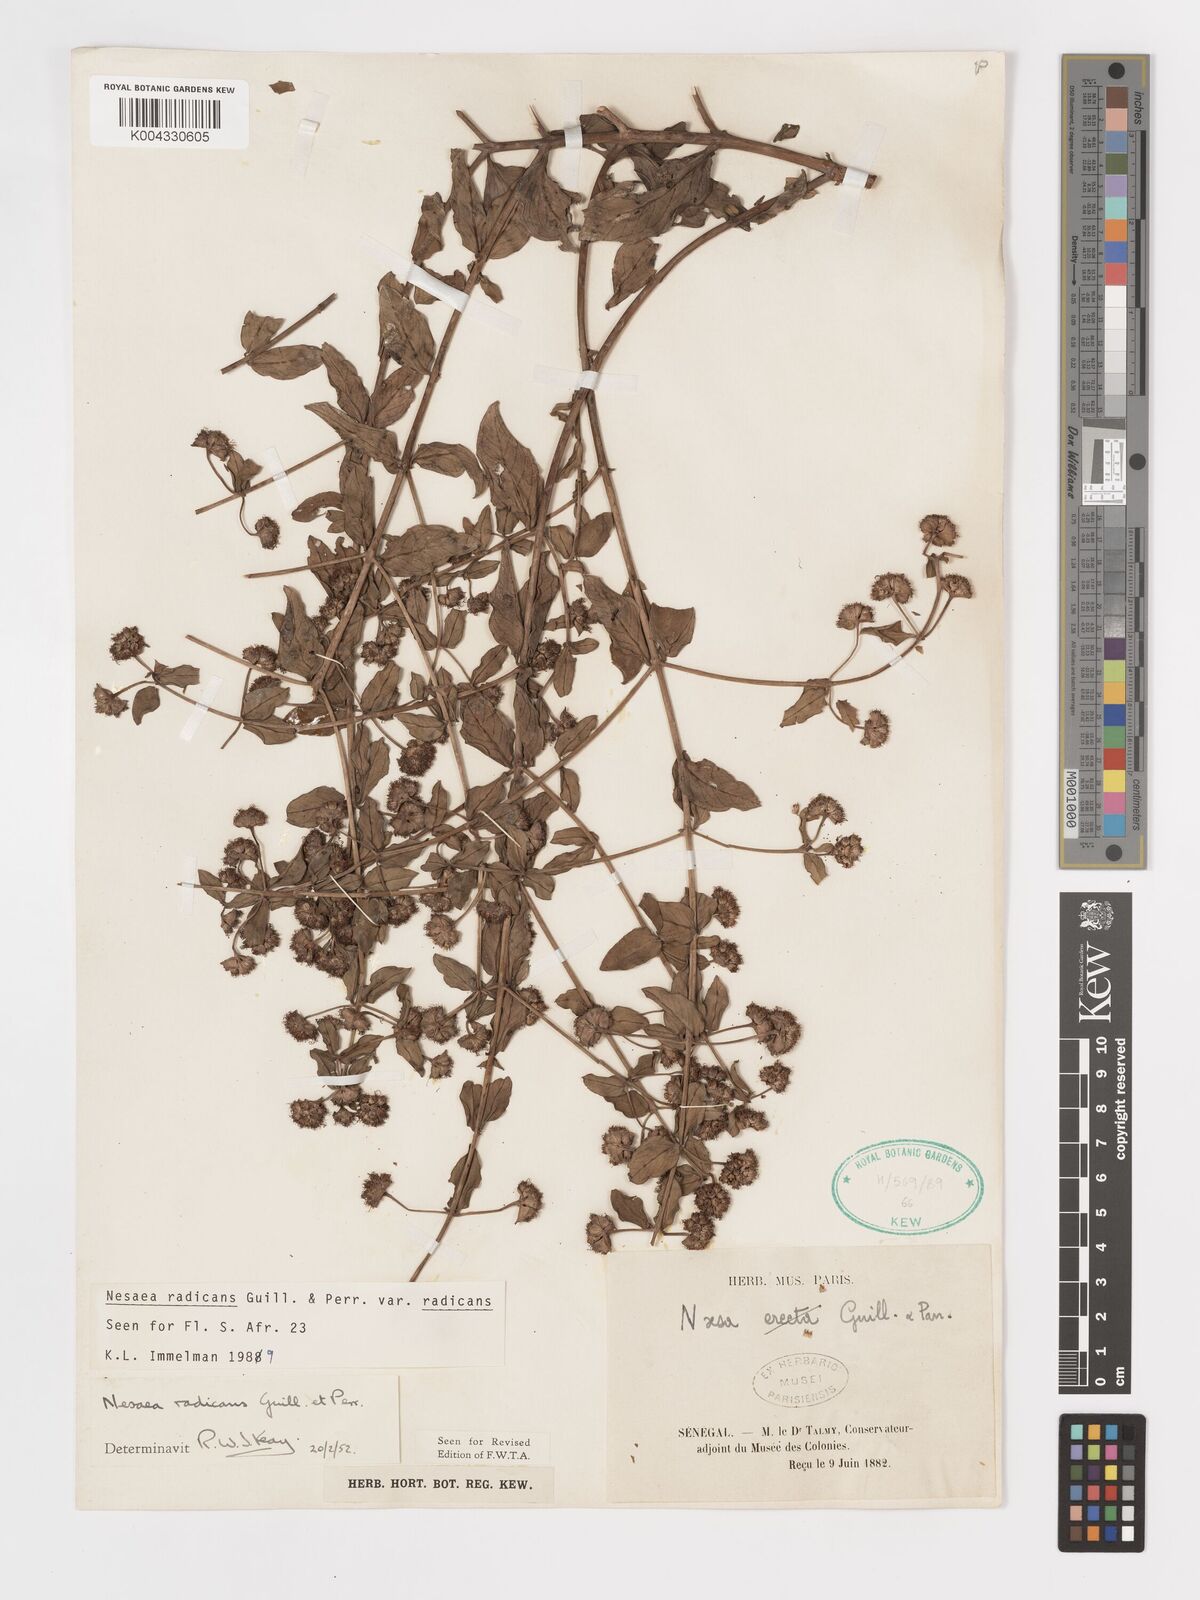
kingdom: Plantae
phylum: Tracheophyta
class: Magnoliopsida
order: Myrtales
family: Lythraceae
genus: Ammannia
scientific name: Ammannia radicans
